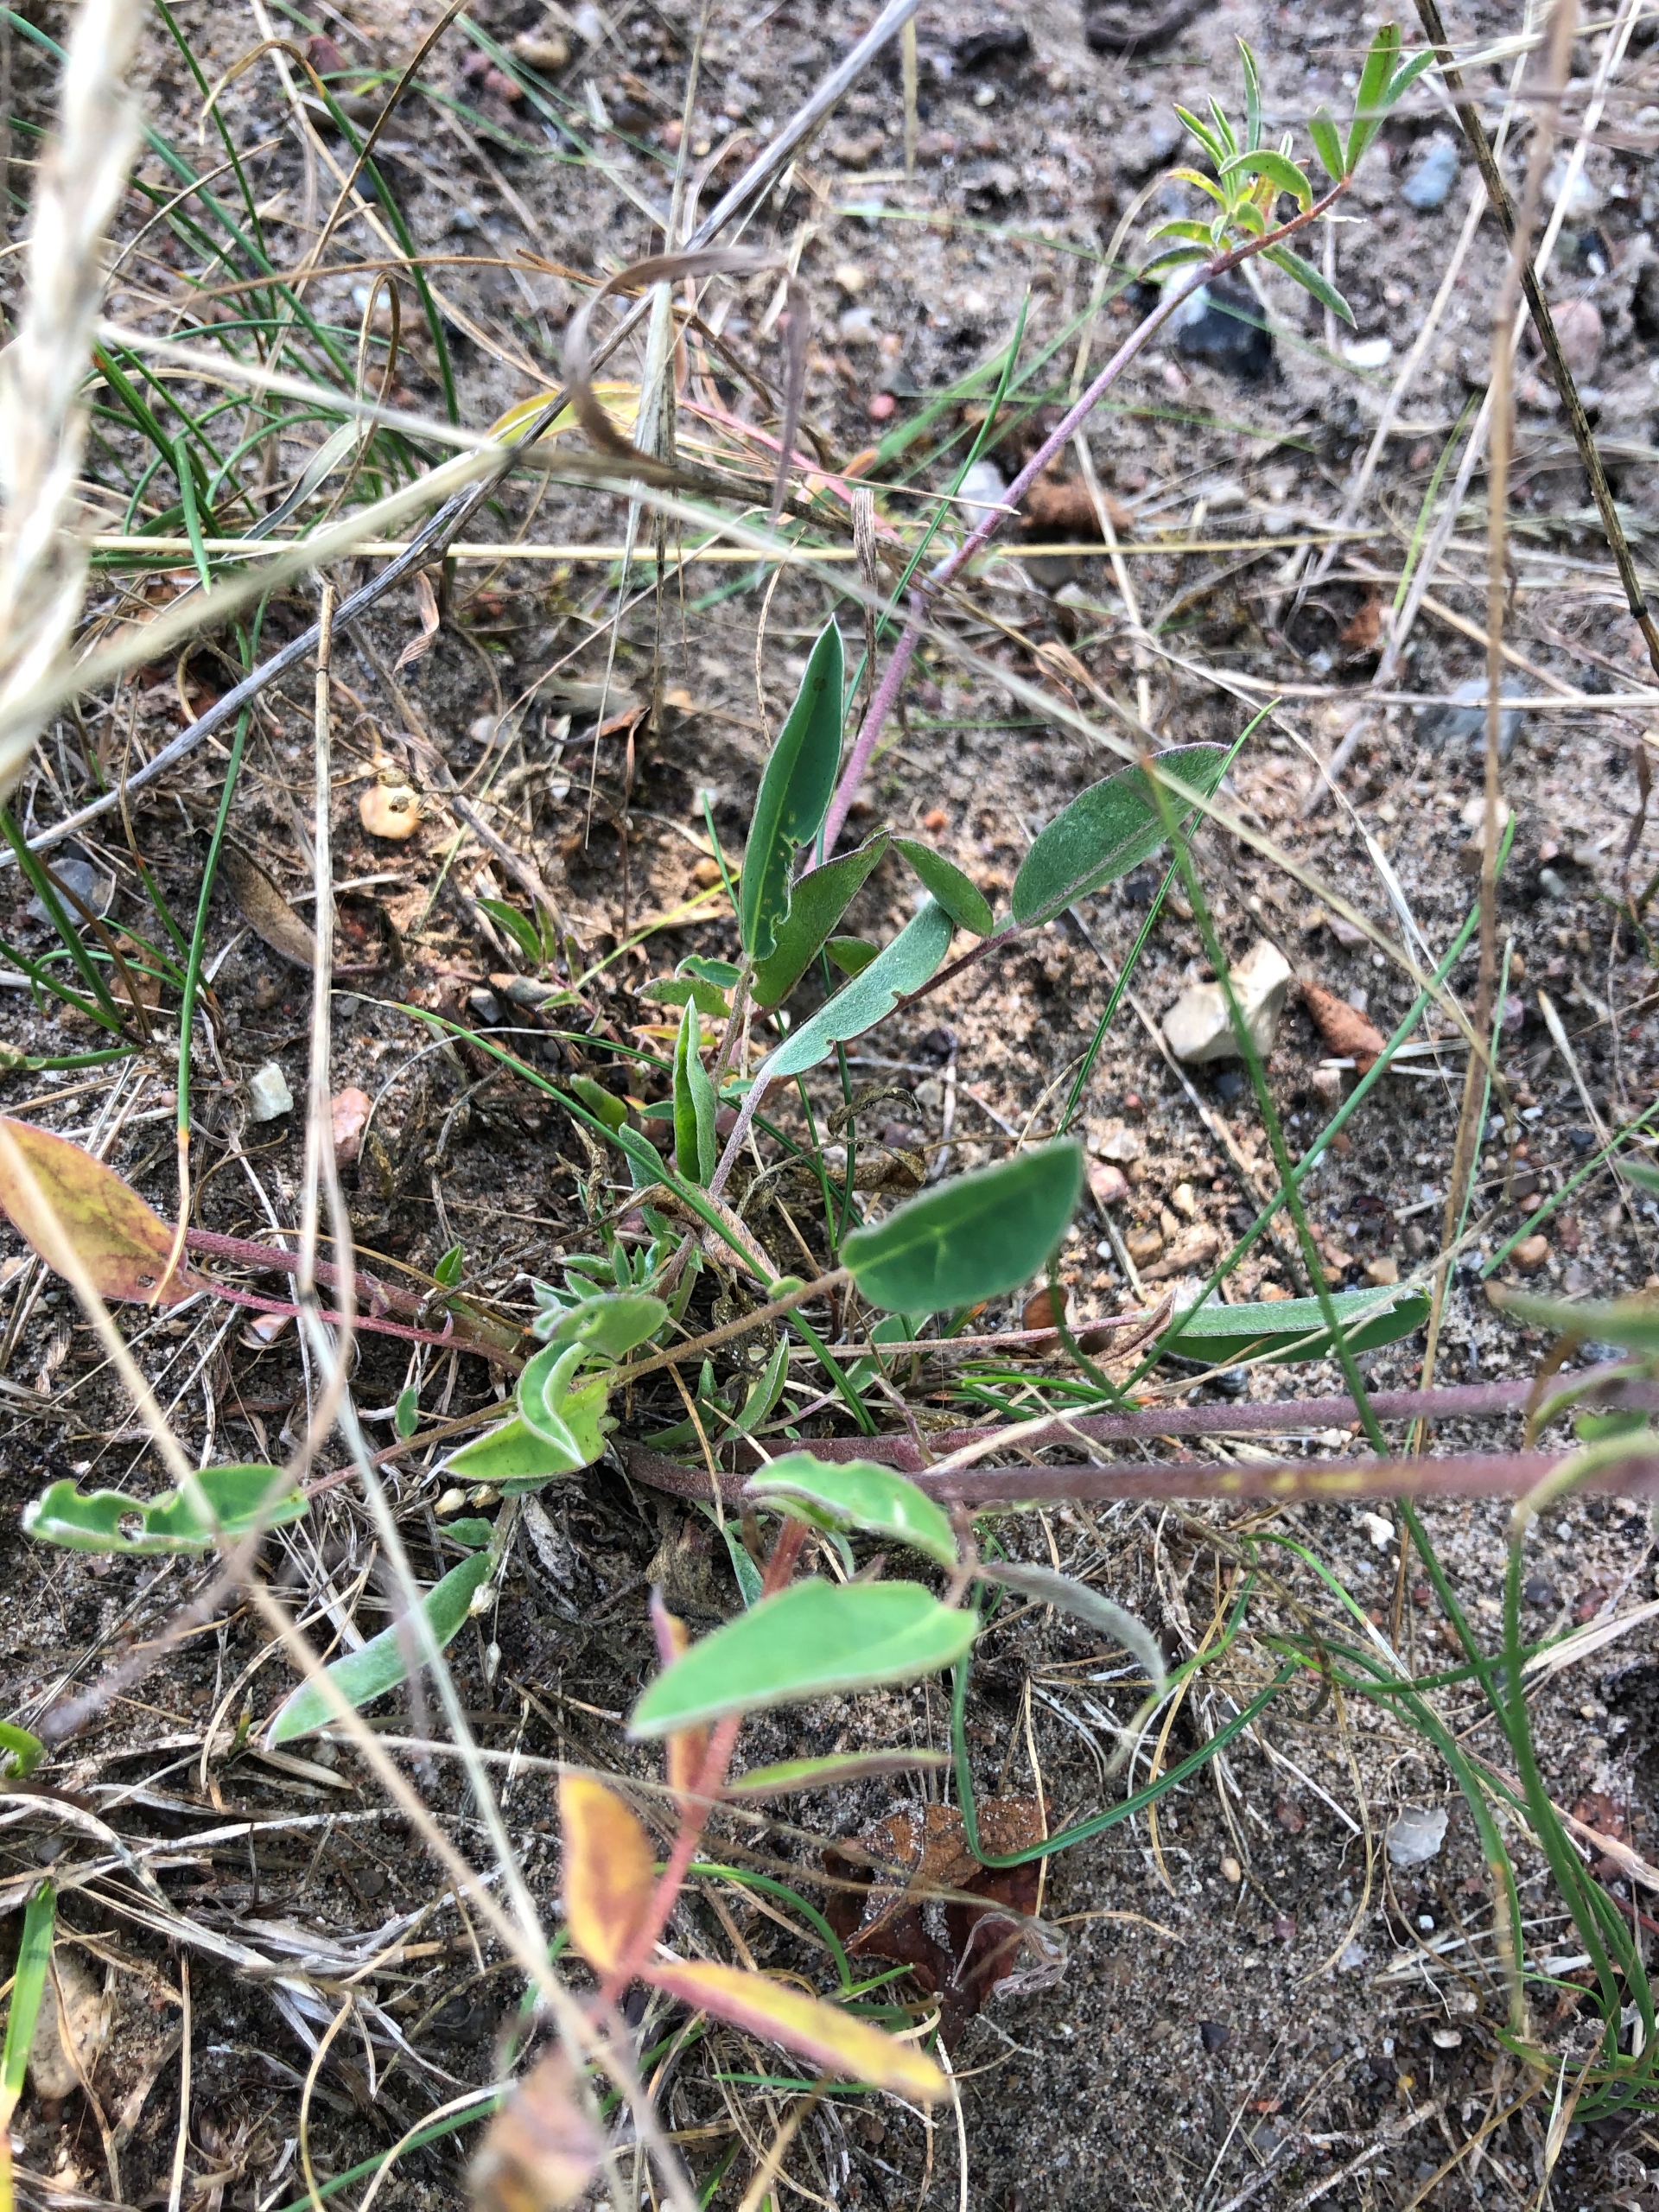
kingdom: Plantae
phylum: Tracheophyta
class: Magnoliopsida
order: Fabales
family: Fabaceae
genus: Anthyllis
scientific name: Anthyllis vulneraria
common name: Rundbælg
